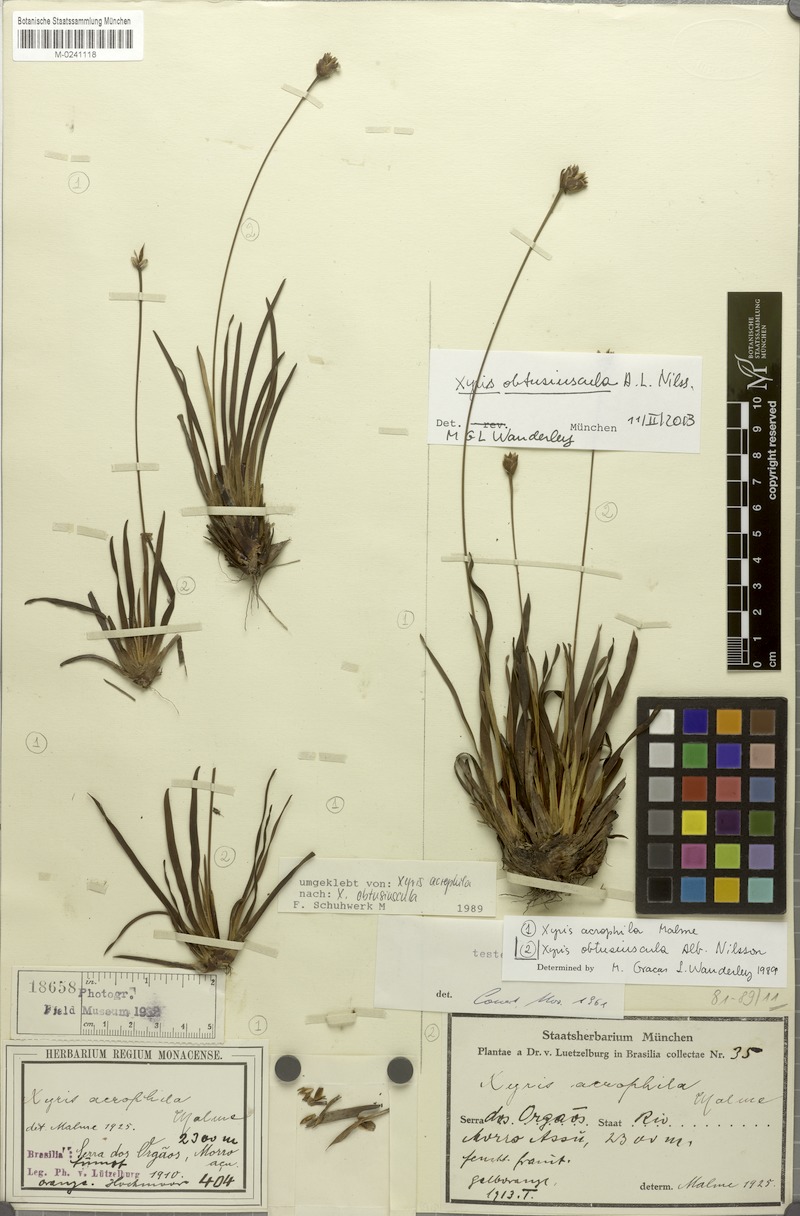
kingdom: Plantae
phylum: Tracheophyta
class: Liliopsida
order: Poales
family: Xyridaceae
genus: Xyris
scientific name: Xyris obtusiuscula
